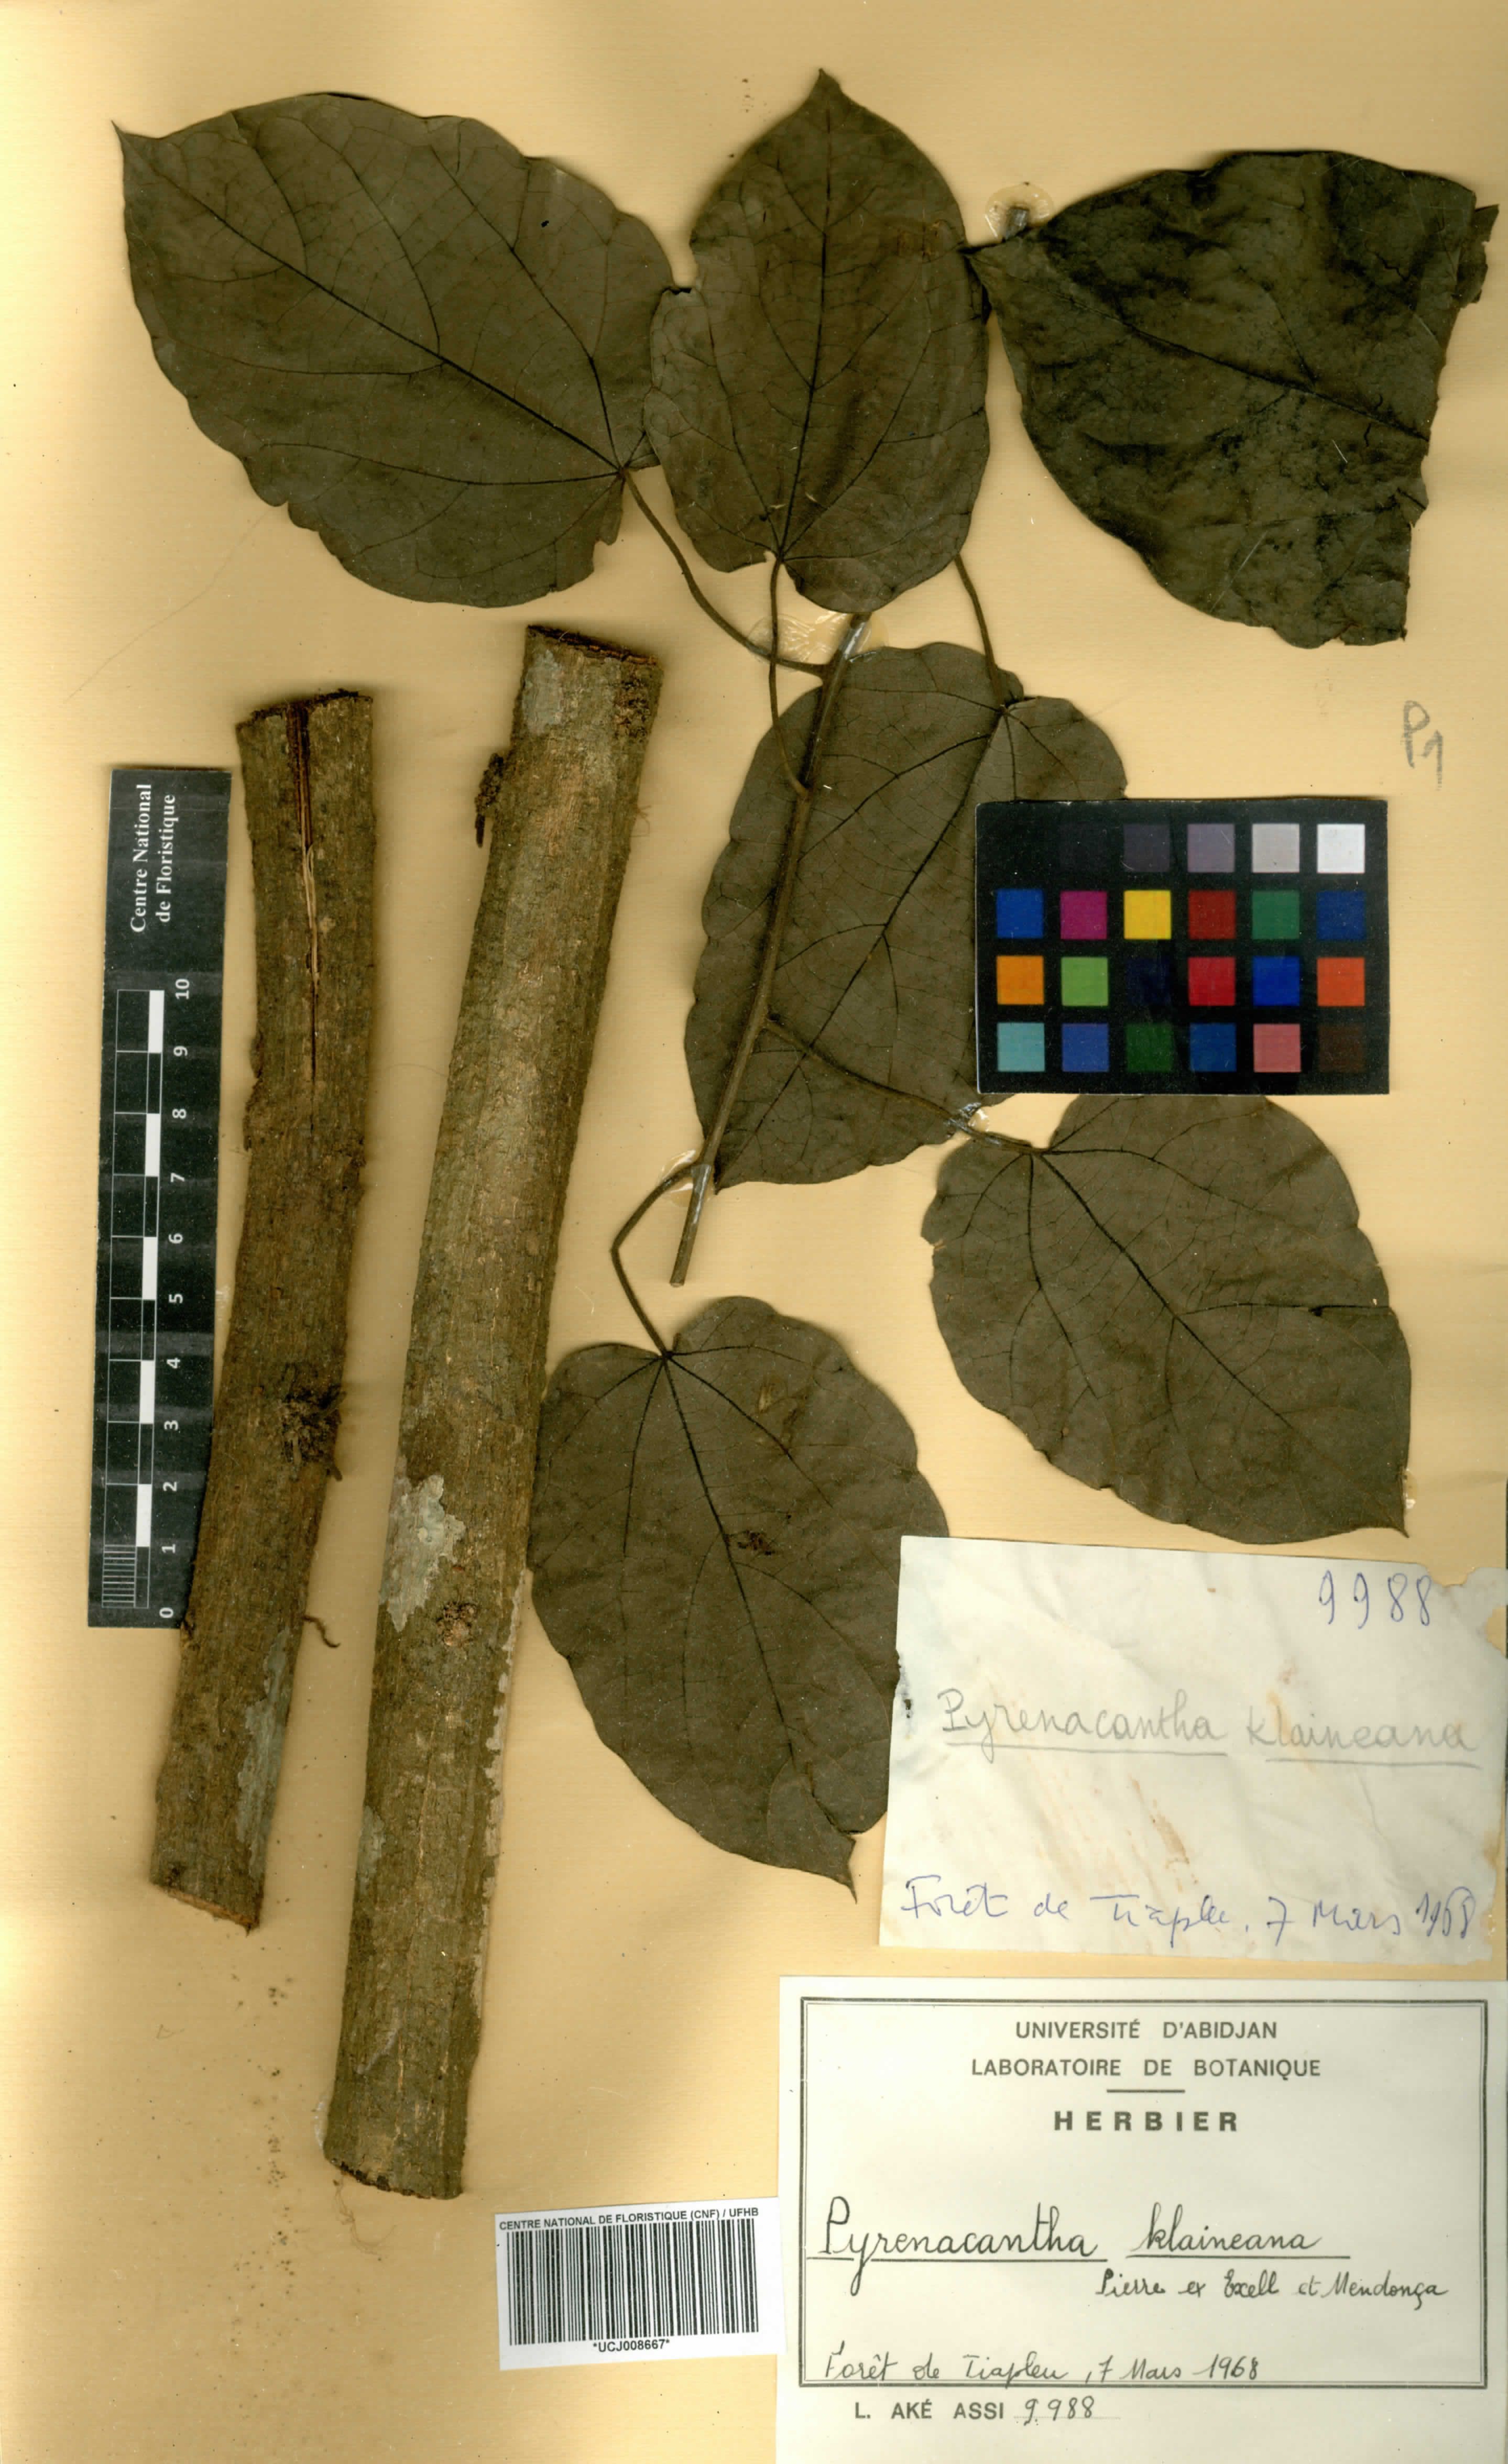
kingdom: Plantae
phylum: Tracheophyta
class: Magnoliopsida
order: Icacinales
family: Icacinaceae
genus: Pyrenacantha
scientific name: Pyrenacantha klaineana
